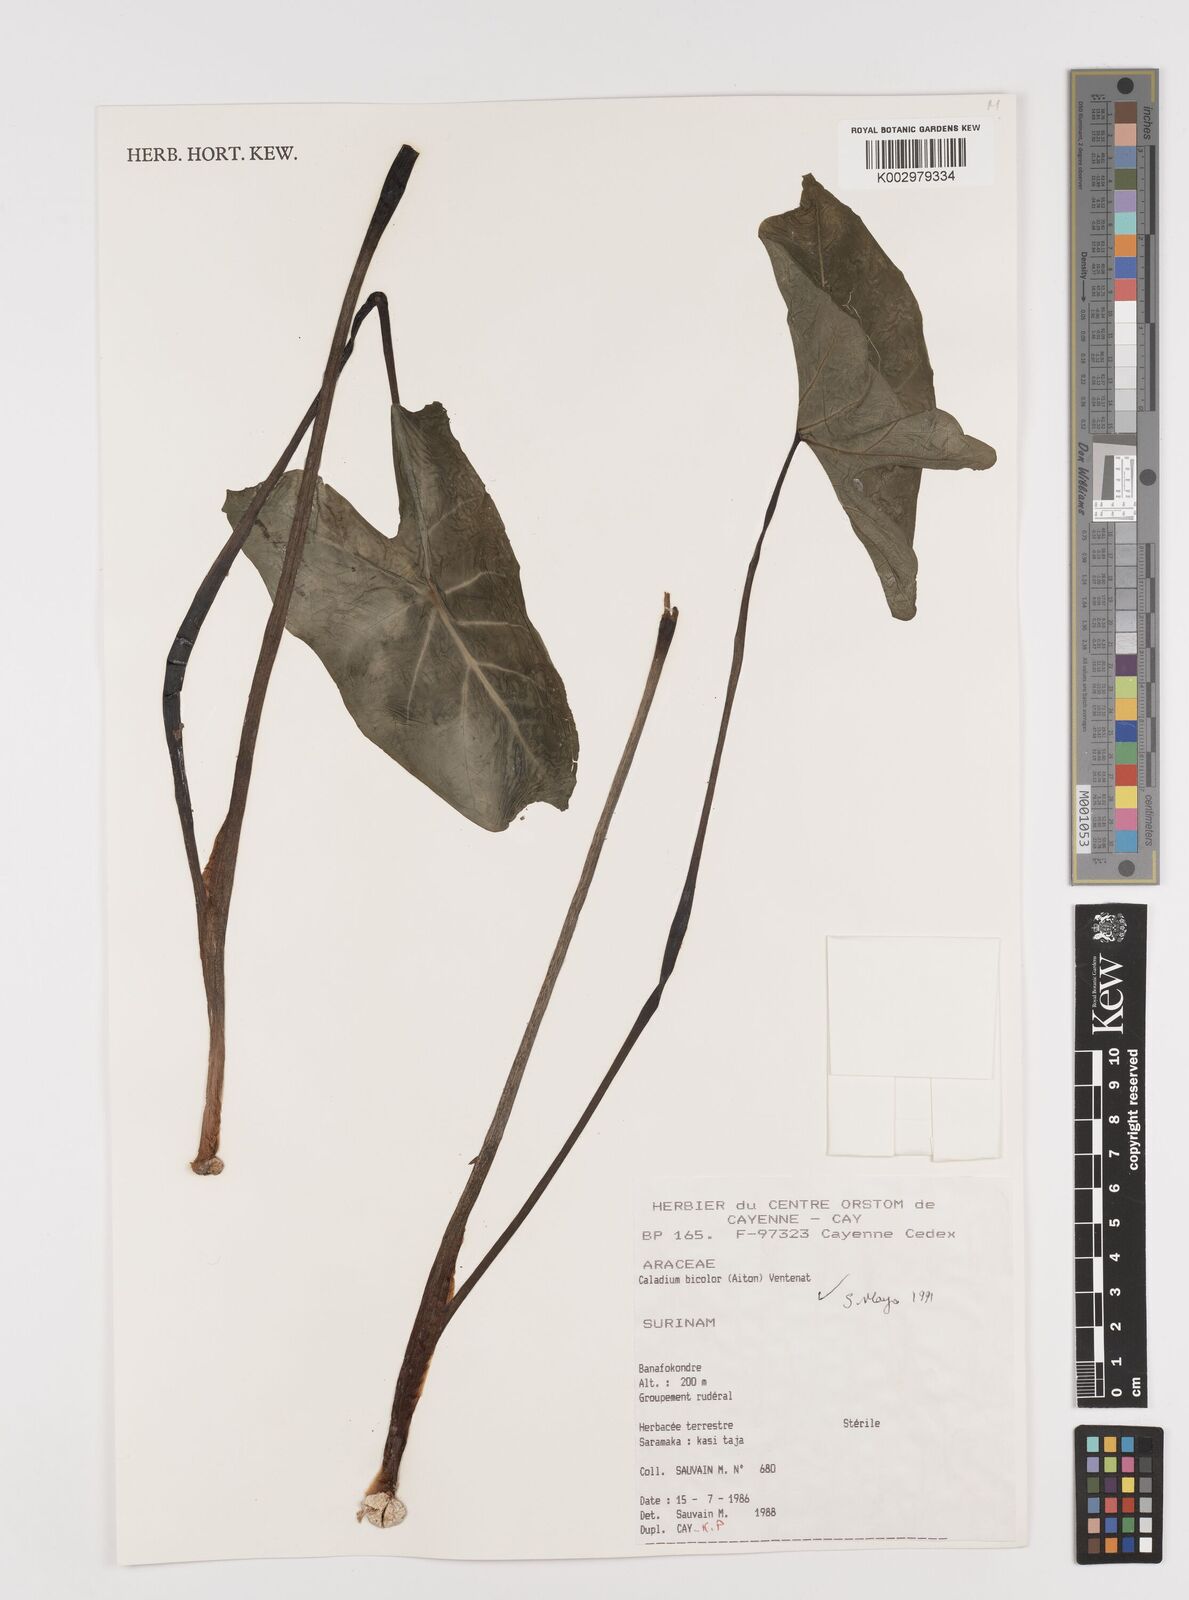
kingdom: Plantae
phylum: Tracheophyta
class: Liliopsida
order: Alismatales
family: Araceae
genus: Xanthosoma
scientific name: Xanthosoma poecile
